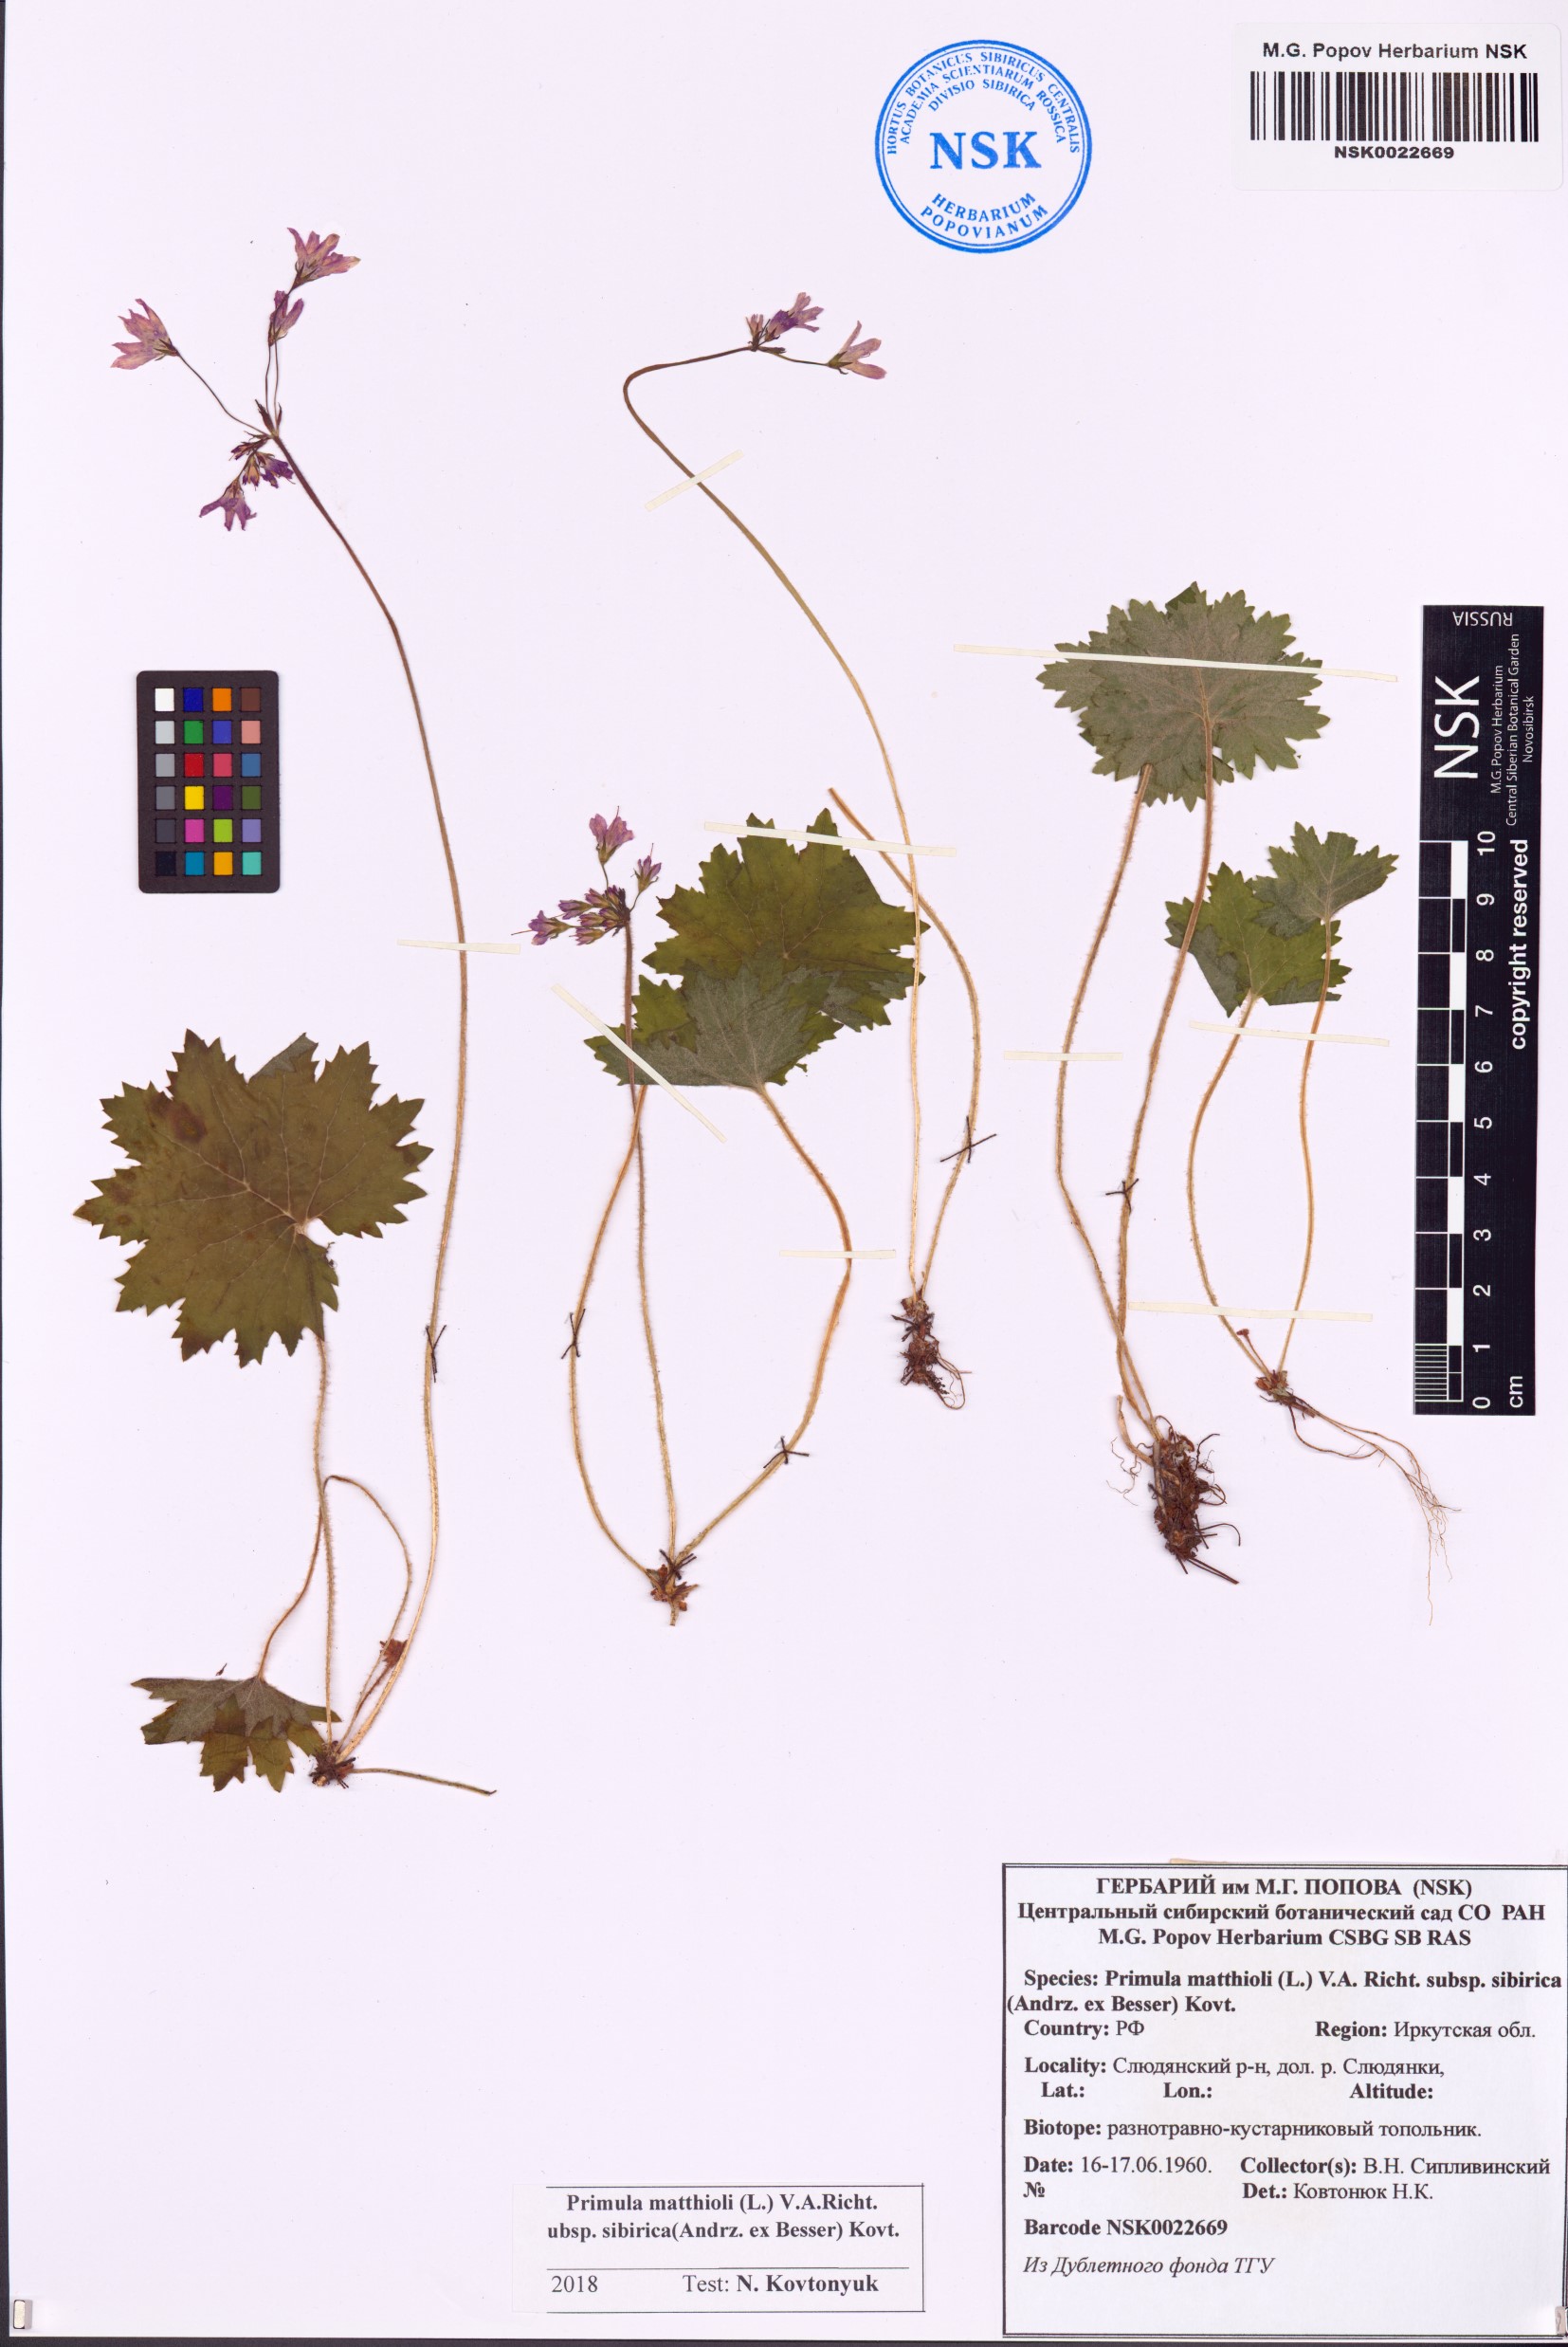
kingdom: Plantae
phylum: Tracheophyta
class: Magnoliopsida
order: Ericales
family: Primulaceae
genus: Primula
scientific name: Primula matthioli
